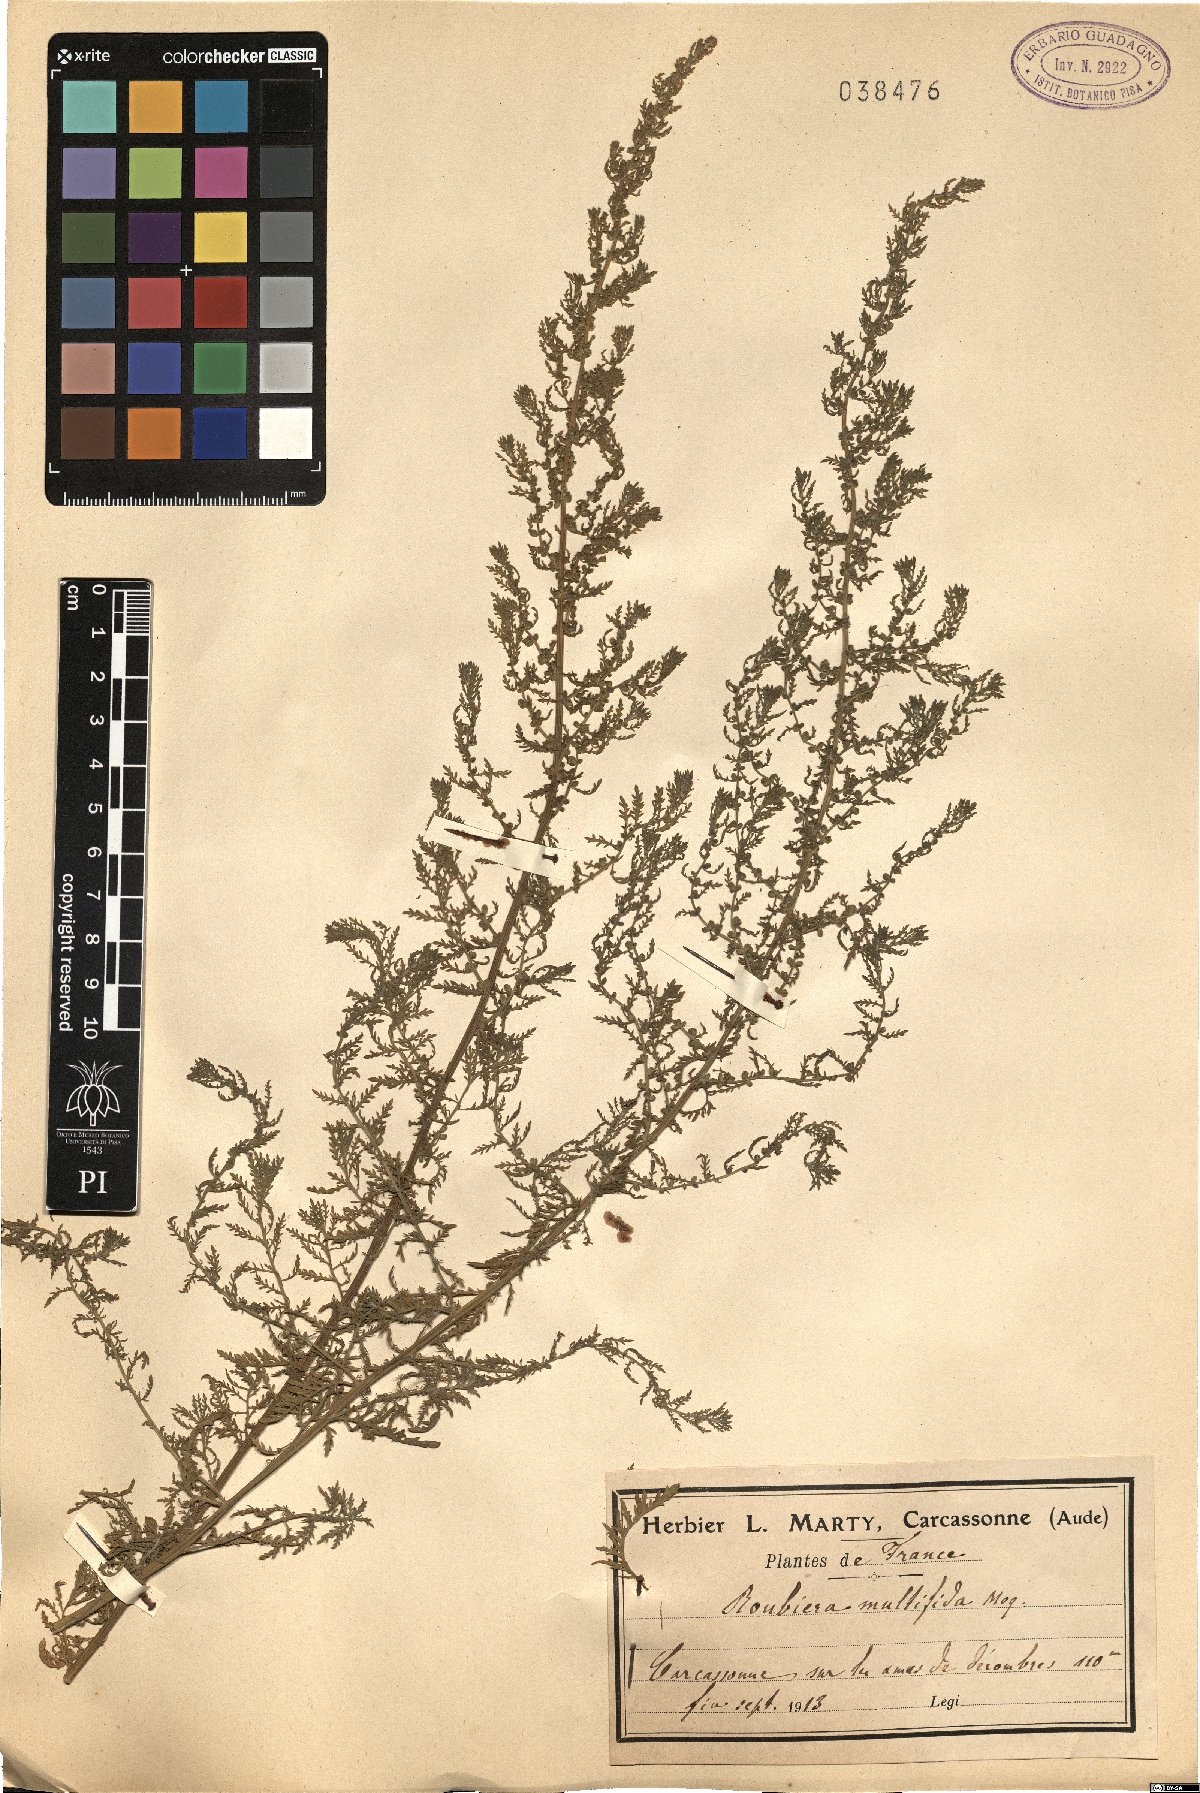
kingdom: Plantae
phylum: Tracheophyta
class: Magnoliopsida
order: Caryophyllales
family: Amaranthaceae
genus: Dysphania
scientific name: Dysphania multifida
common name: Cutleaf goosefoot
